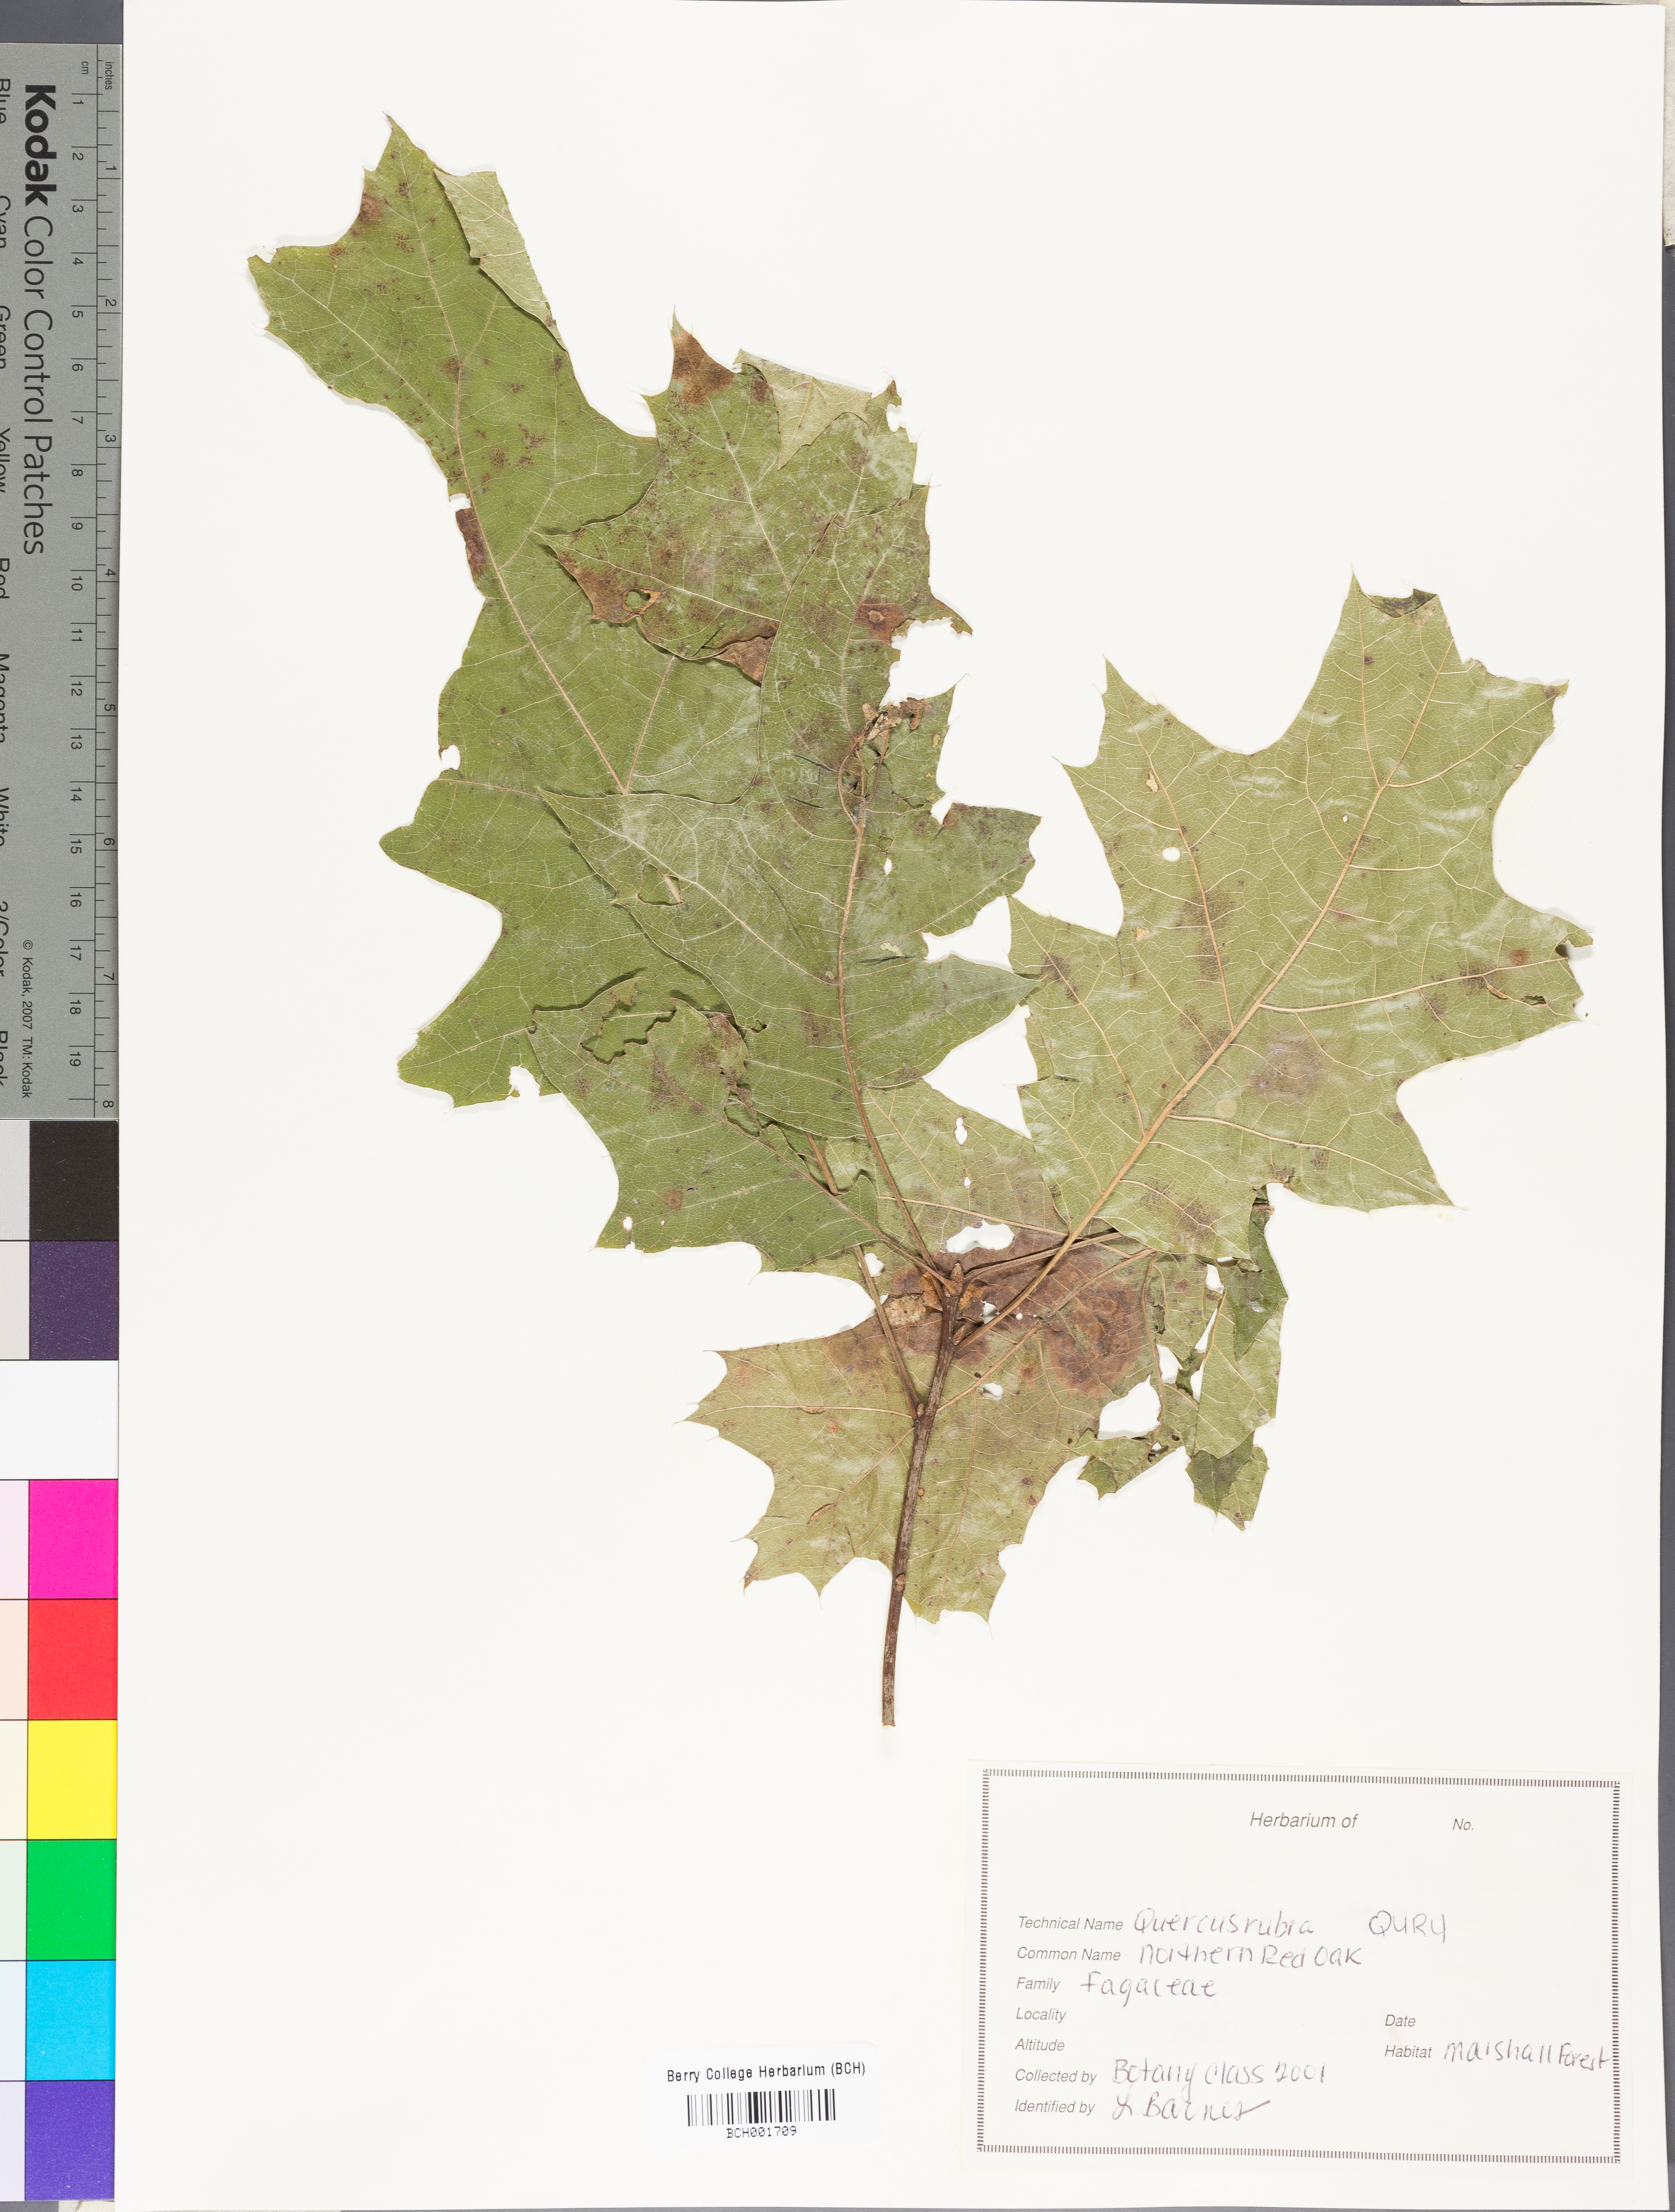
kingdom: Plantae
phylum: Tracheophyta
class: Magnoliopsida
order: Fagales
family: Fagaceae
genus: Quercus
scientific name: Quercus rubra
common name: Red oak
